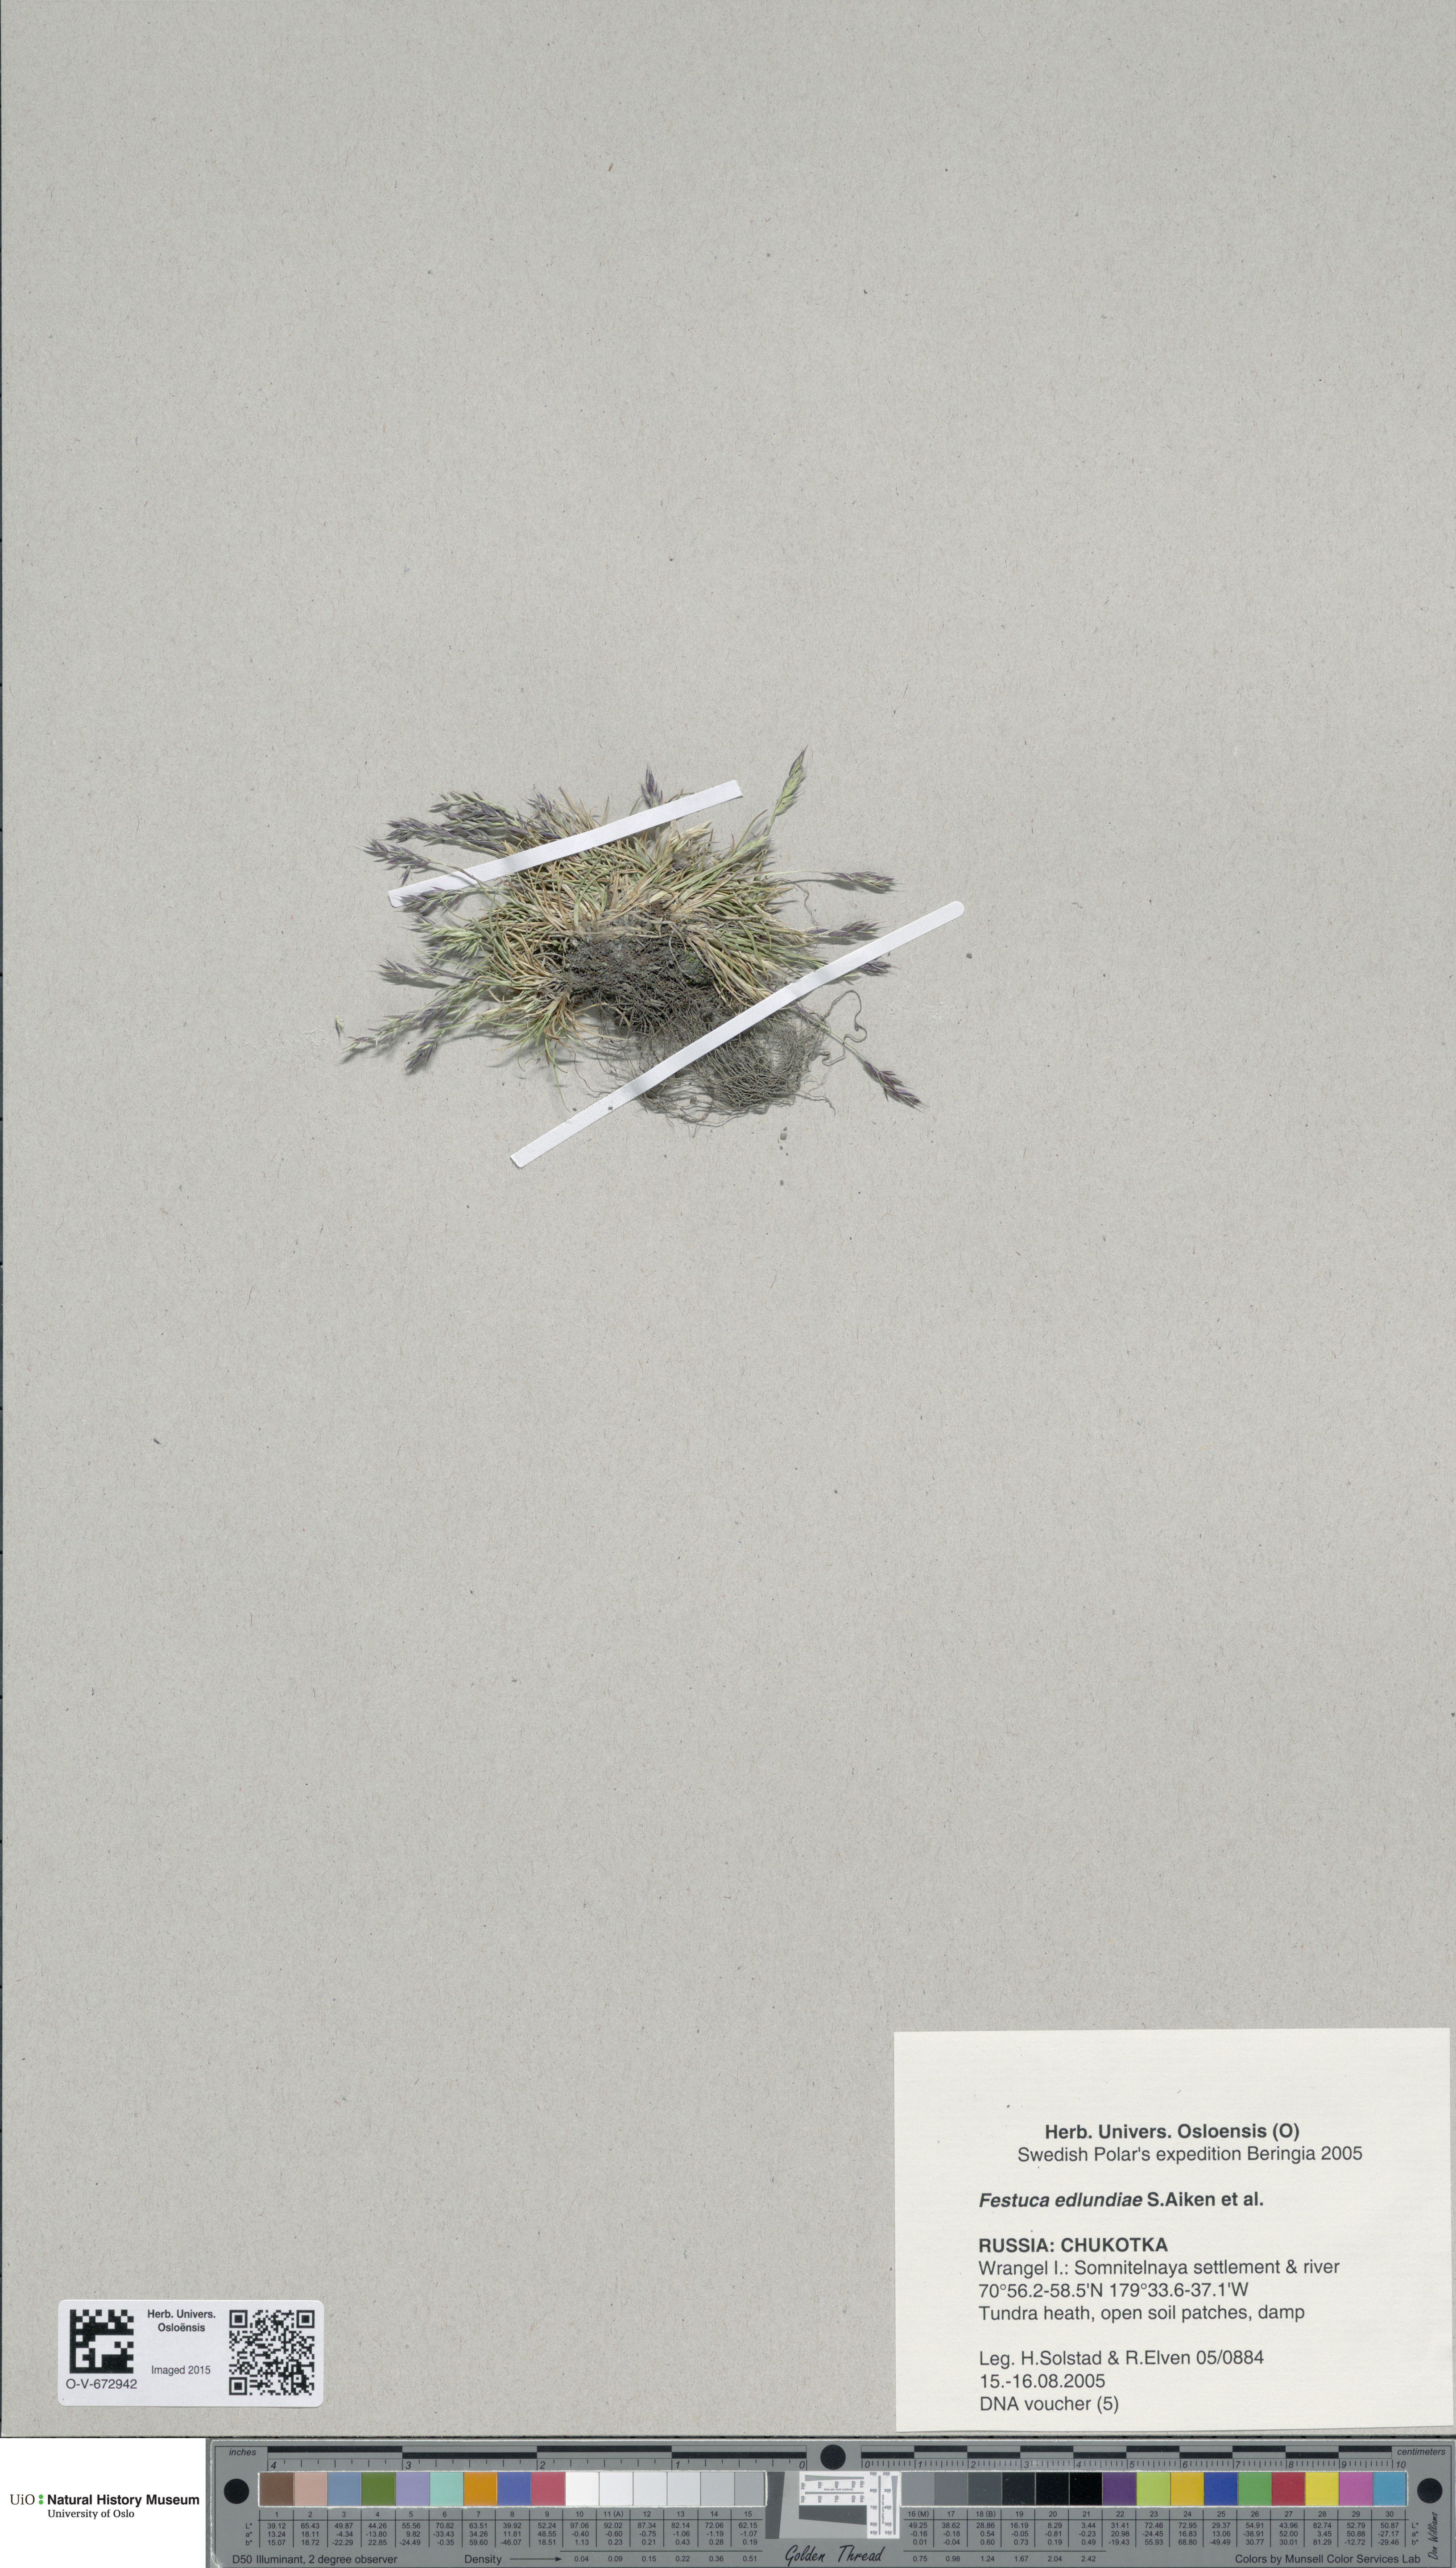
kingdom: Plantae
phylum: Tracheophyta
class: Liliopsida
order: Poales
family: Poaceae
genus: Festuca
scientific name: Festuca edlundiae
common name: Edlund's fescue
